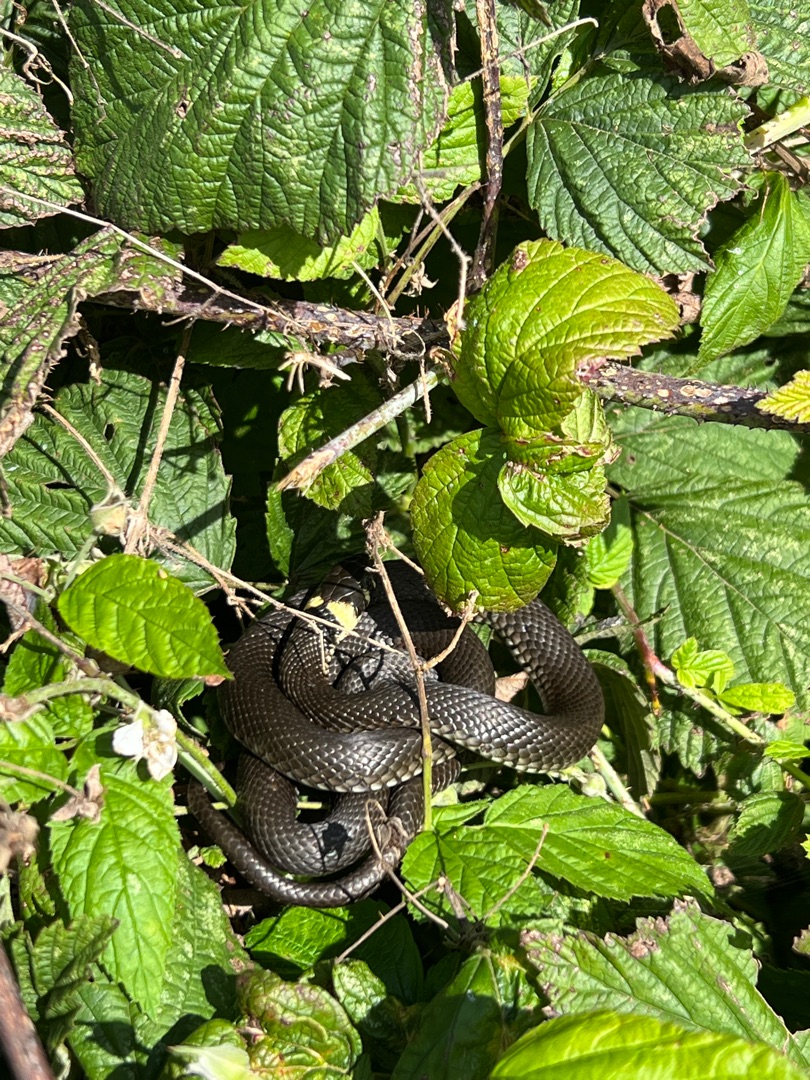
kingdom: Animalia
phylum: Chordata
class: Squamata
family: Colubridae
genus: Natrix
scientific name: Natrix natrix
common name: Snog
